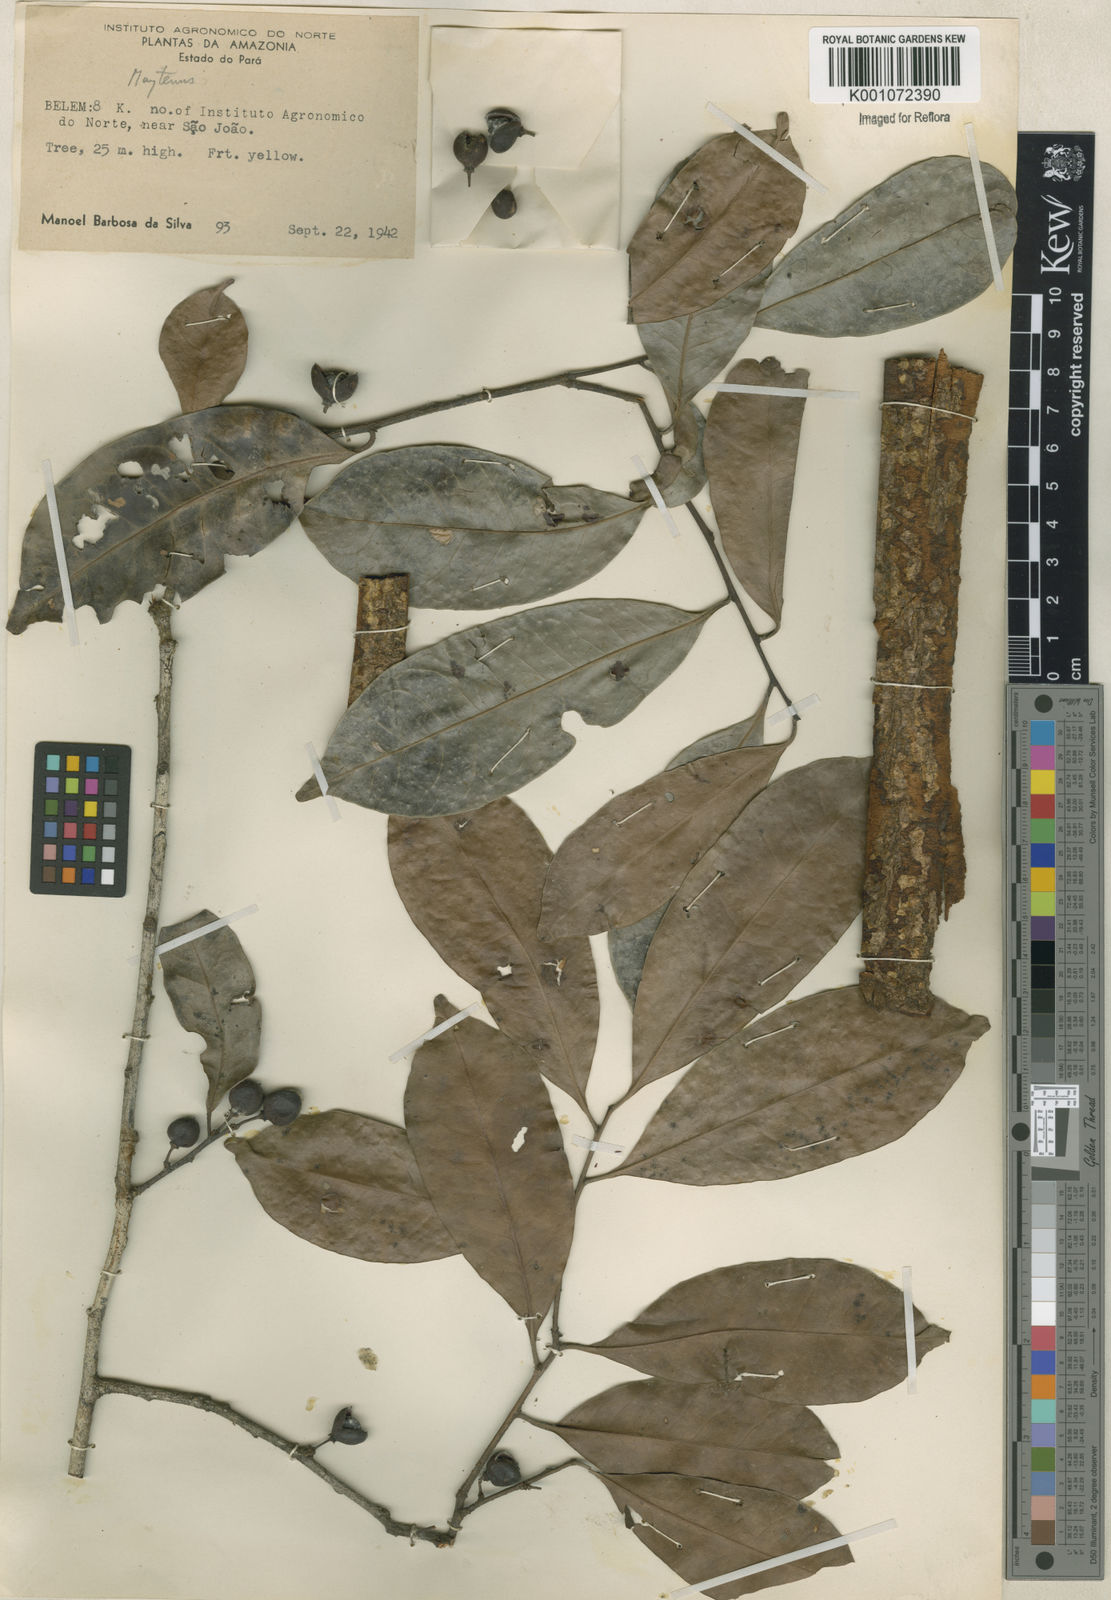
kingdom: Plantae
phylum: Tracheophyta
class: Magnoliopsida
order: Celastrales
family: Celastraceae
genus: Maytenus
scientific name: Maytenus
